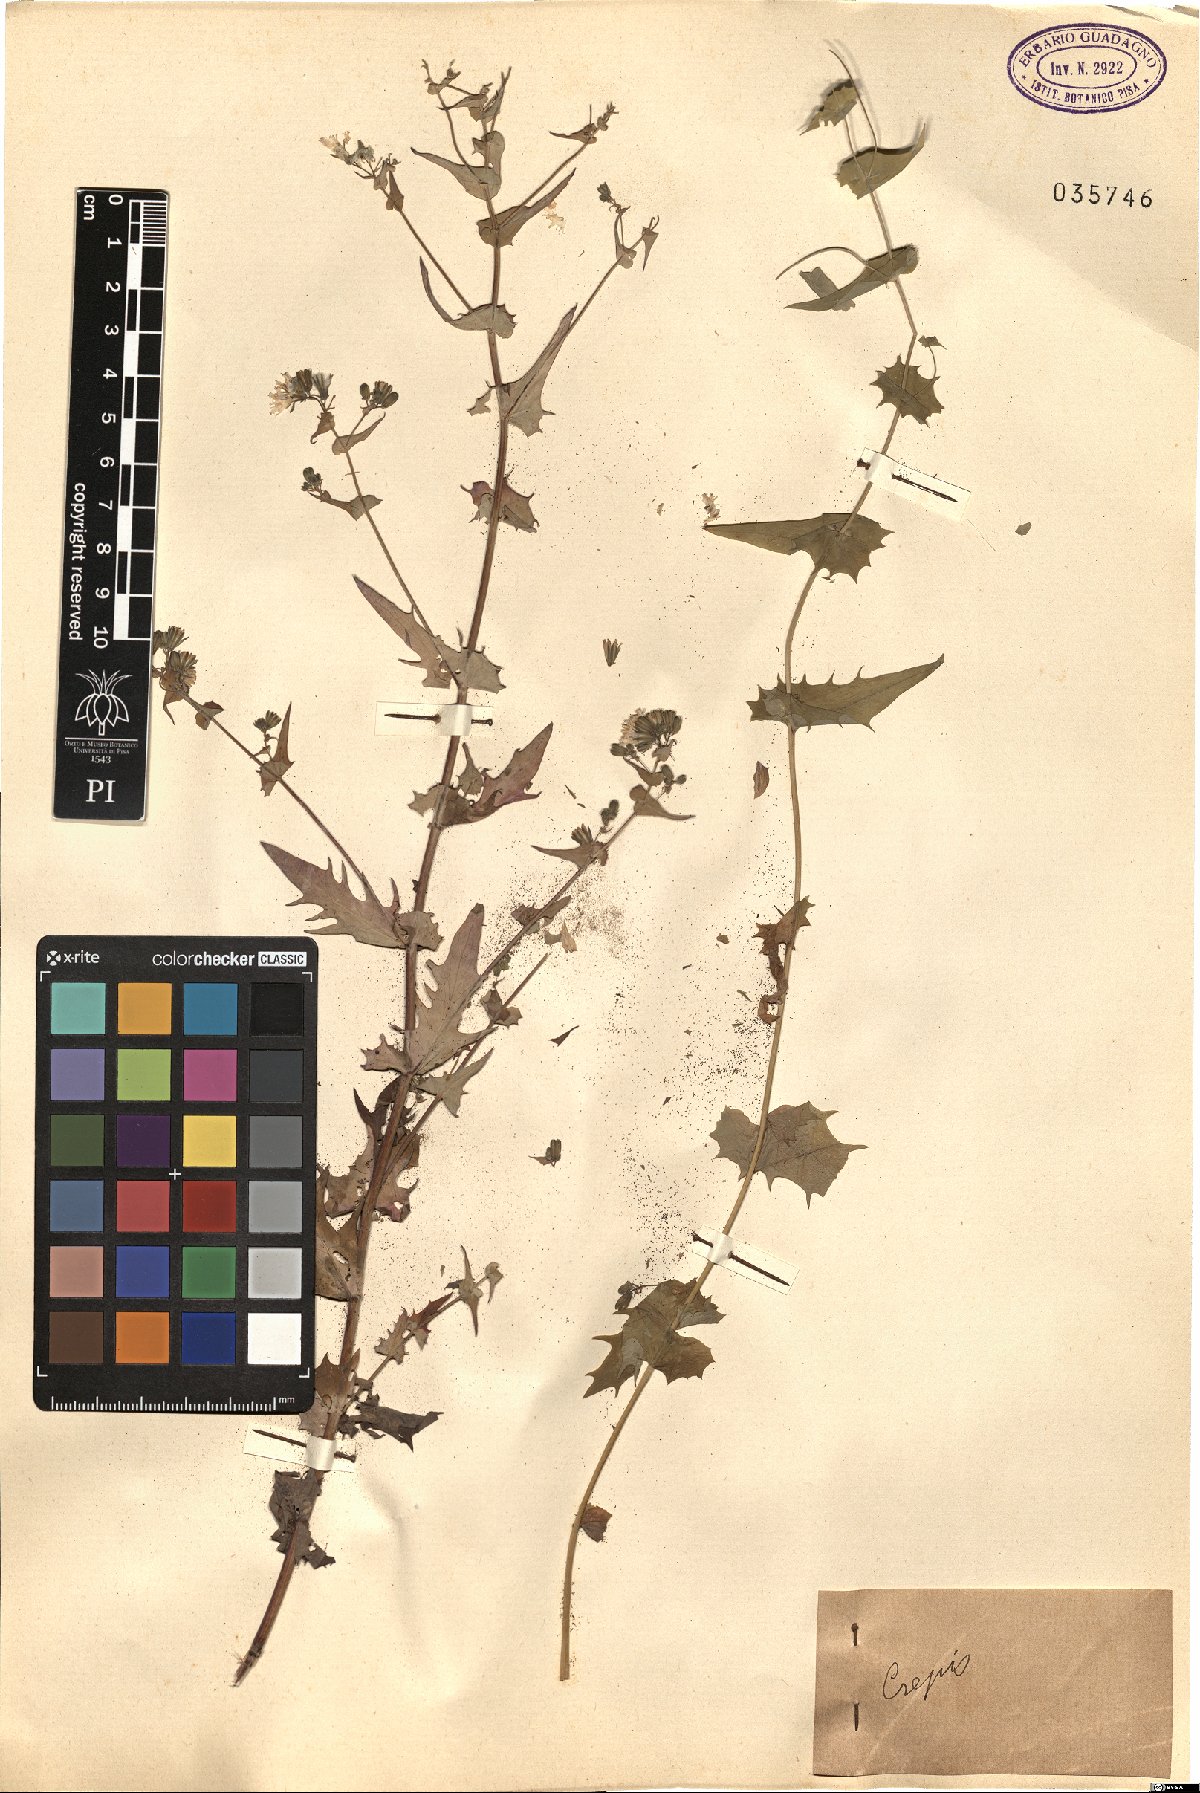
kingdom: Plantae
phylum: Tracheophyta
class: Magnoliopsida
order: Asterales
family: Asteraceae
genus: Crepis
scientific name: Crepis
